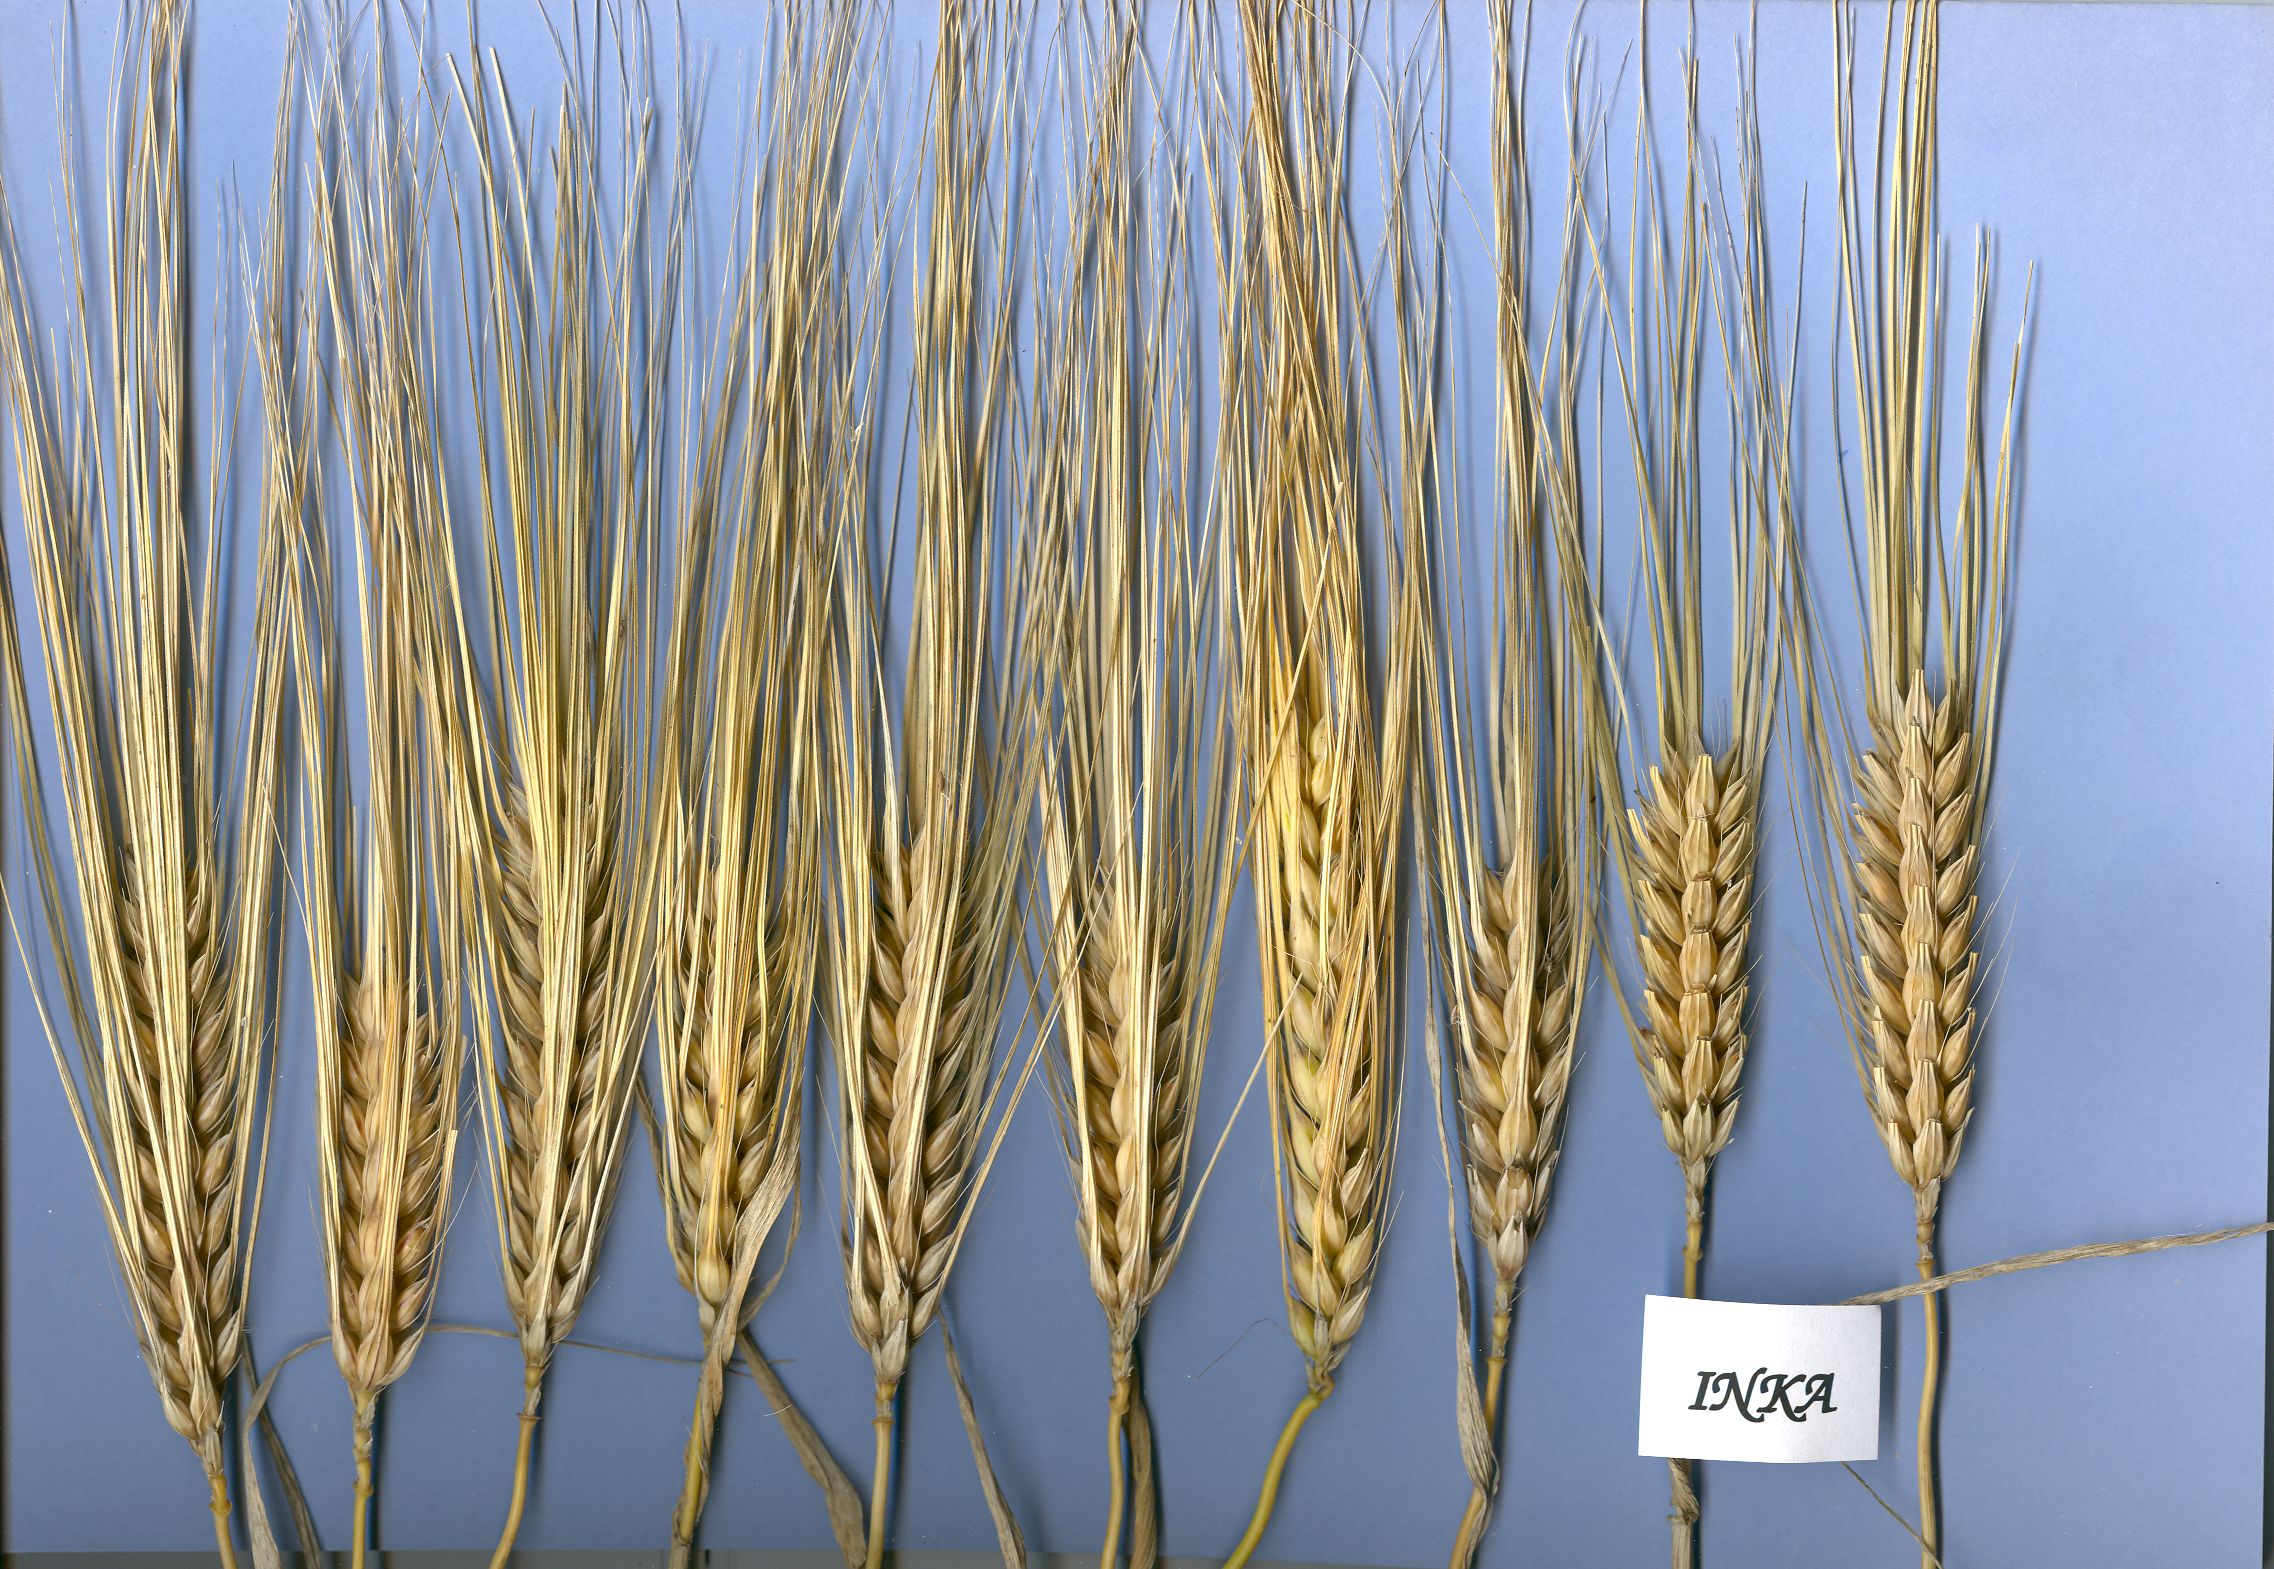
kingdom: Plantae
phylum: Tracheophyta
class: Liliopsida
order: Poales
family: Poaceae
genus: Hordeum
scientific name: Hordeum vulgare
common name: Common barley
